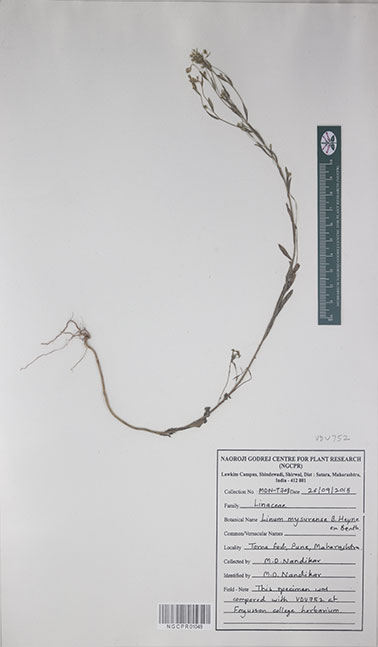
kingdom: Plantae
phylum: Tracheophyta
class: Magnoliopsida
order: Malpighiales
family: Linaceae
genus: Linum
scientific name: Linum mysorense
